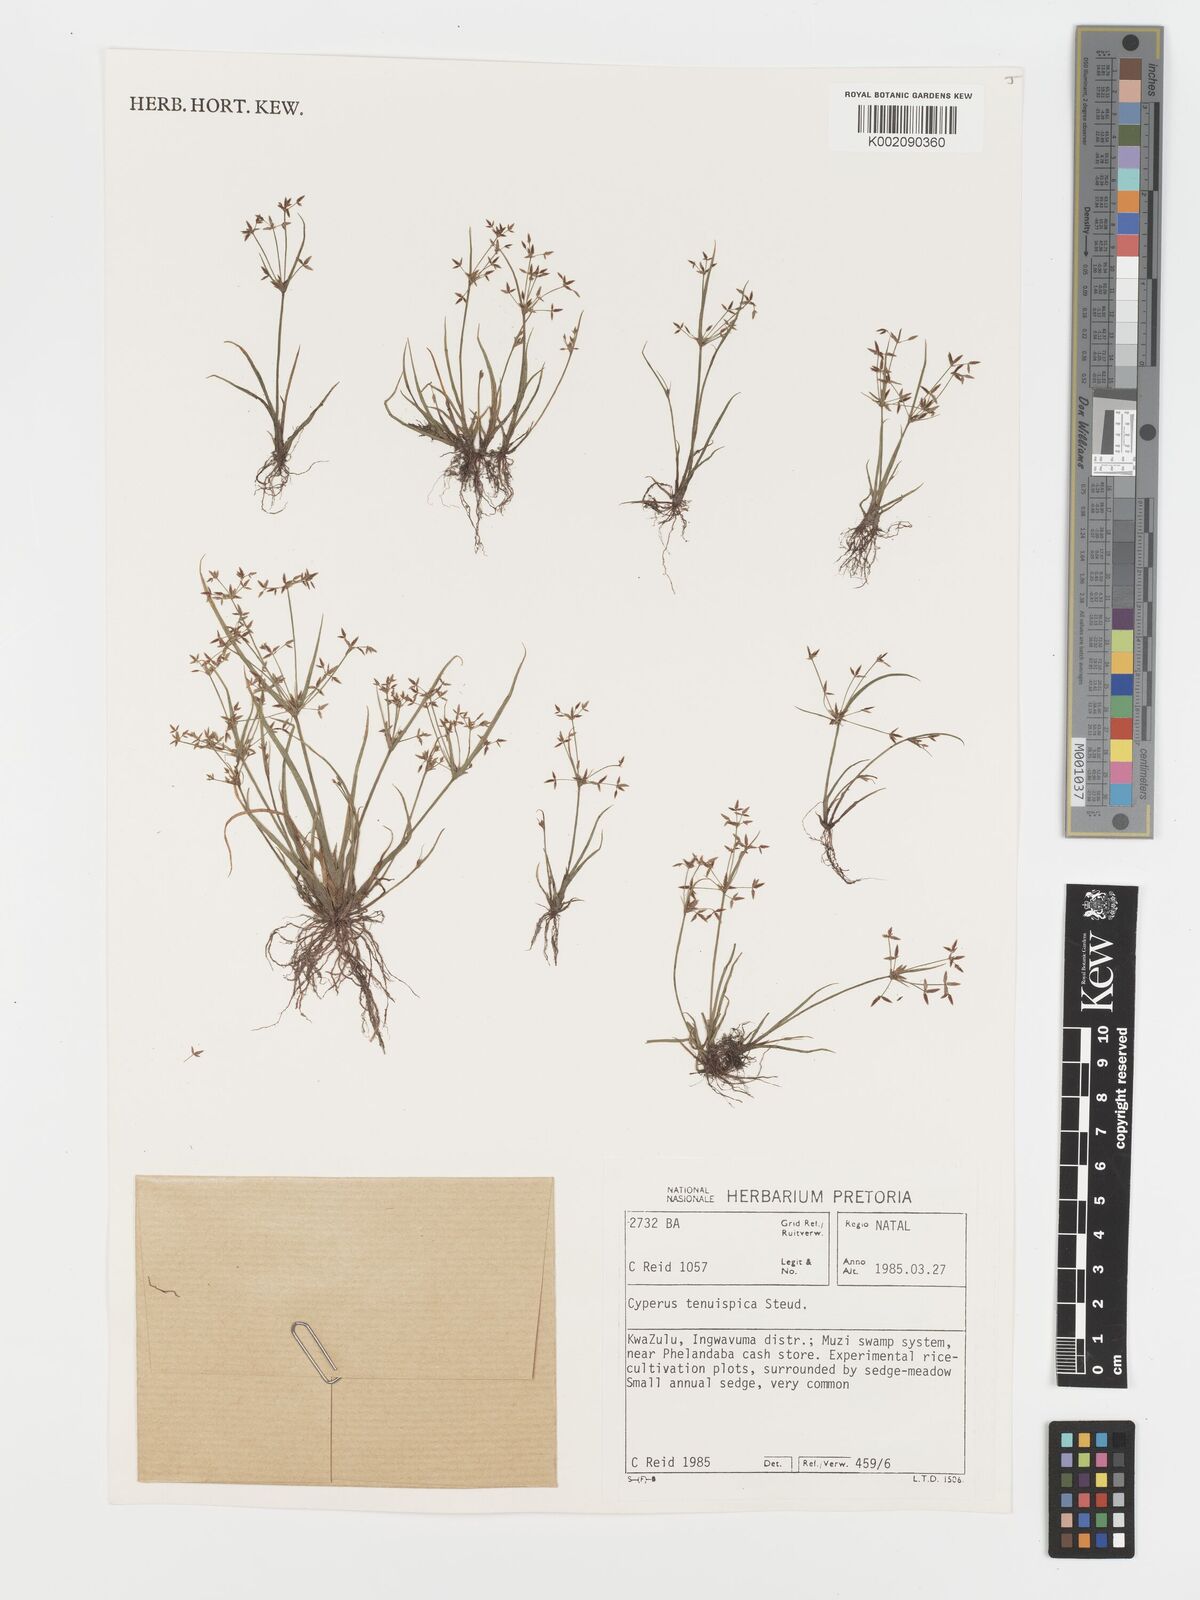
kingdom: Plantae
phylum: Tracheophyta
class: Liliopsida
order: Poales
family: Cyperaceae
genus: Cyperus
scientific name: Cyperus tenuispica
